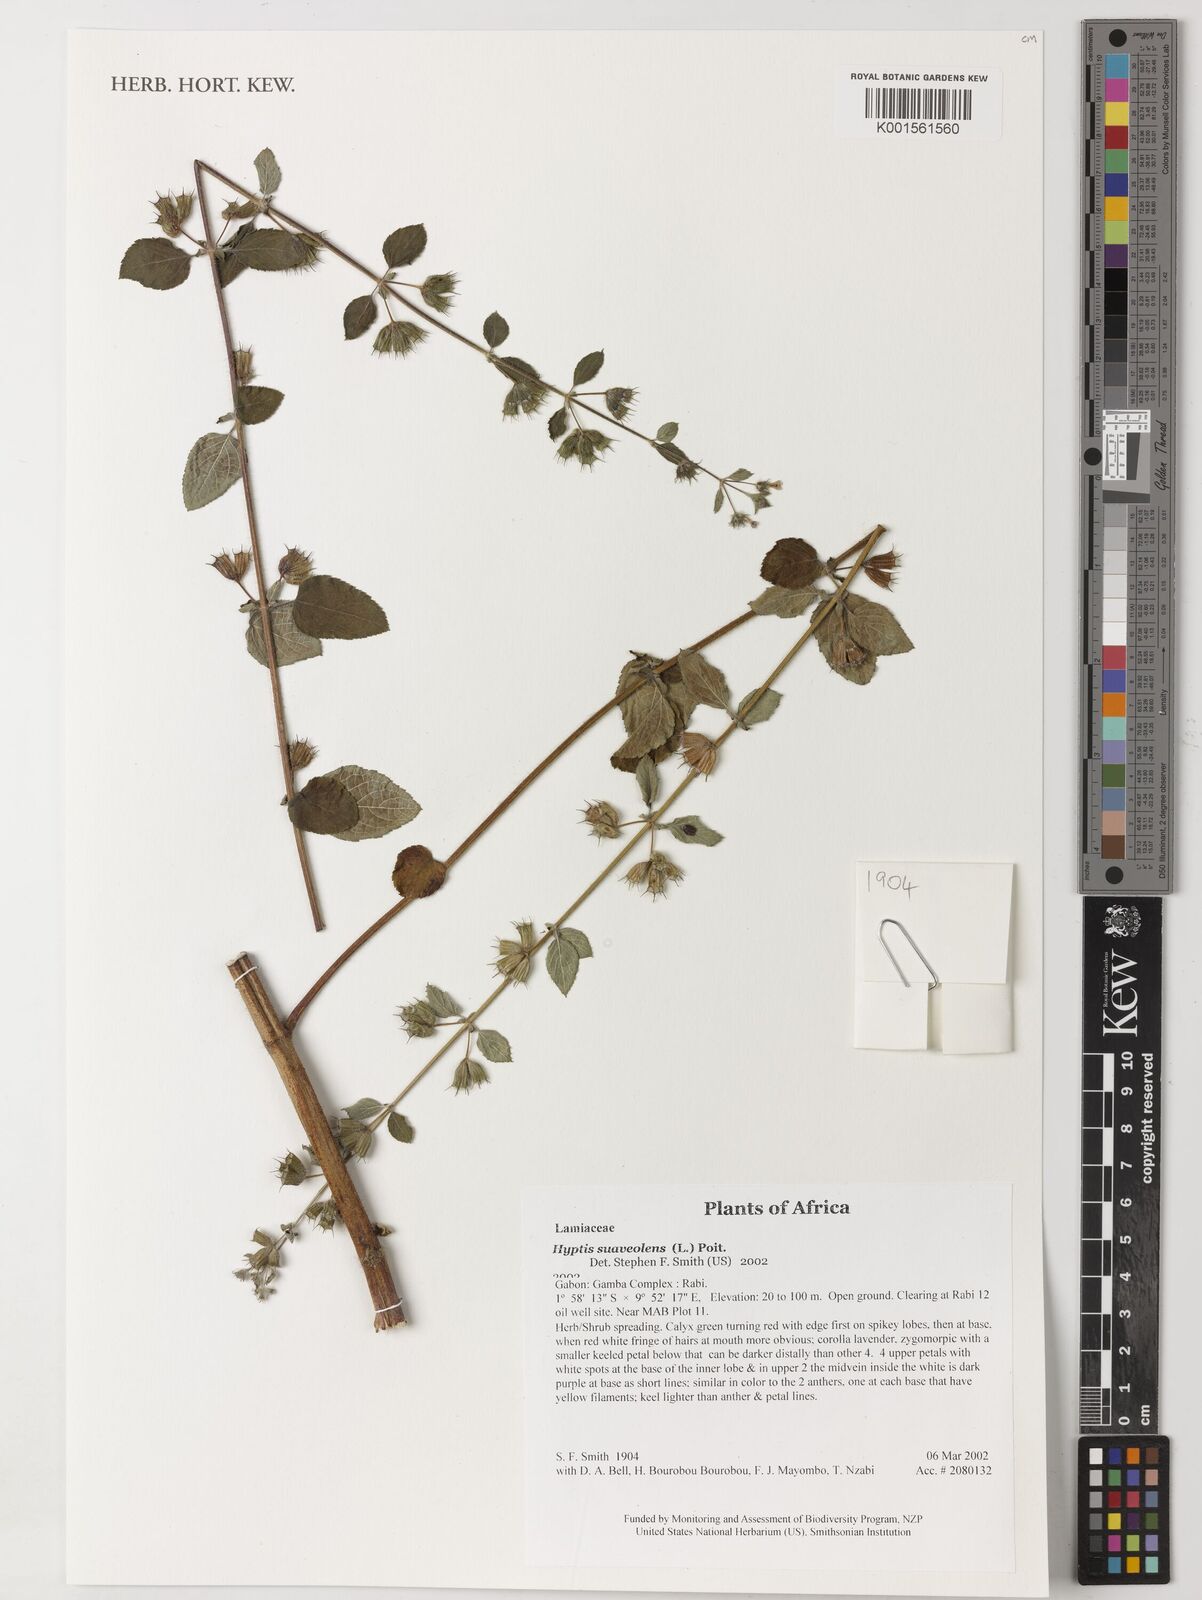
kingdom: Plantae
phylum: Tracheophyta
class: Magnoliopsida
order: Lamiales
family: Lamiaceae
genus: Mesosphaerum
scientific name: Mesosphaerum suaveolens
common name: Pignut
